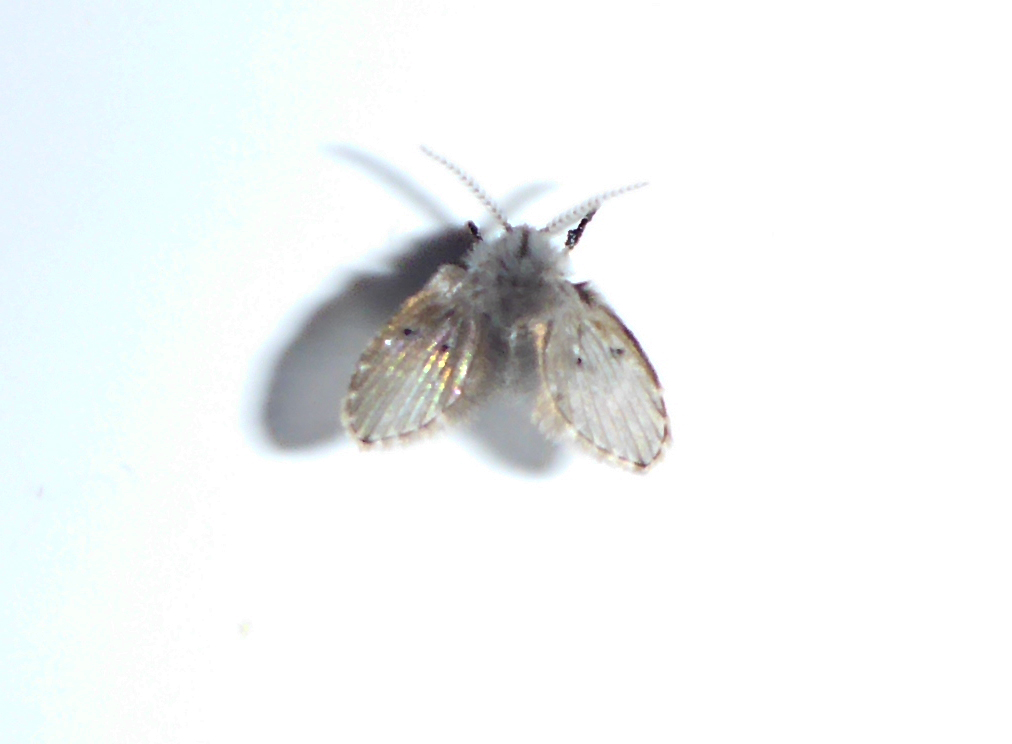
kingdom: Animalia
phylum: Arthropoda
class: Insecta
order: Diptera
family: Psychodidae
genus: Psychoda
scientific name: Psychoda grisescens
